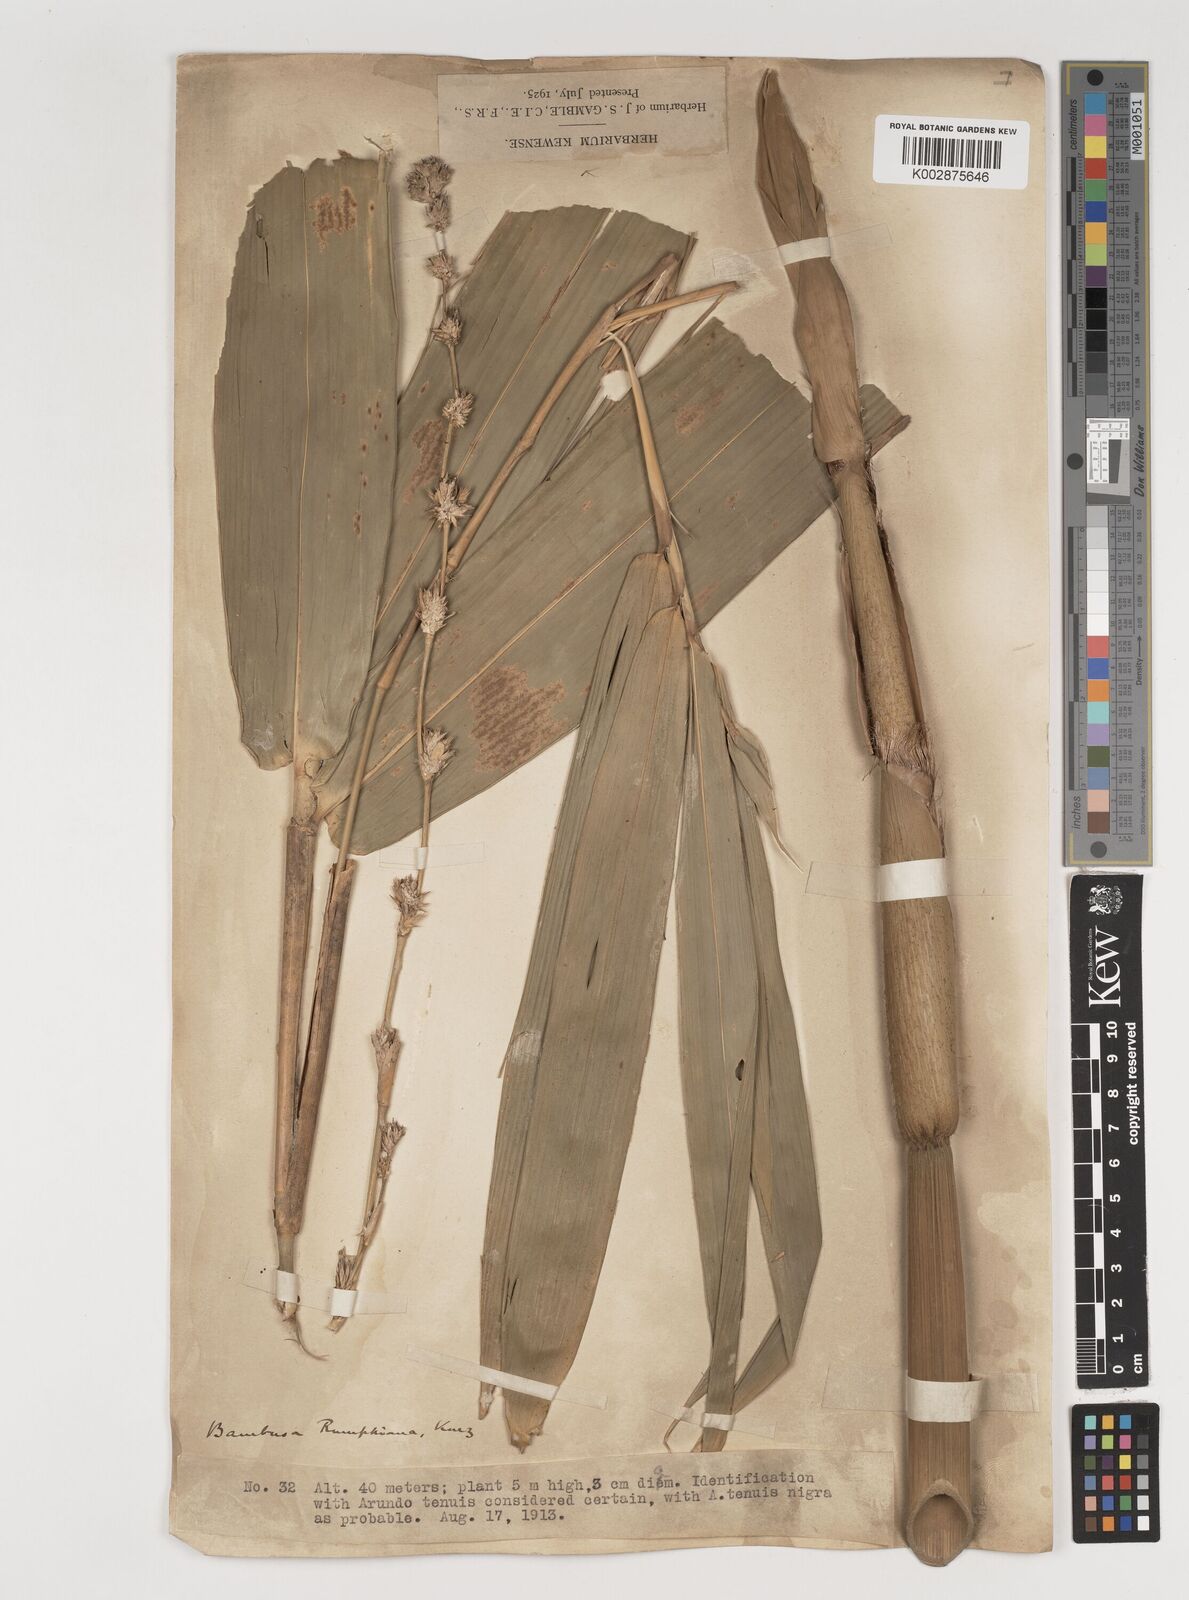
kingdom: Plantae
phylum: Tracheophyta
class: Liliopsida
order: Poales
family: Poaceae
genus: Neololeba
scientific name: Neololeba atra
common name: Cape bamboo
